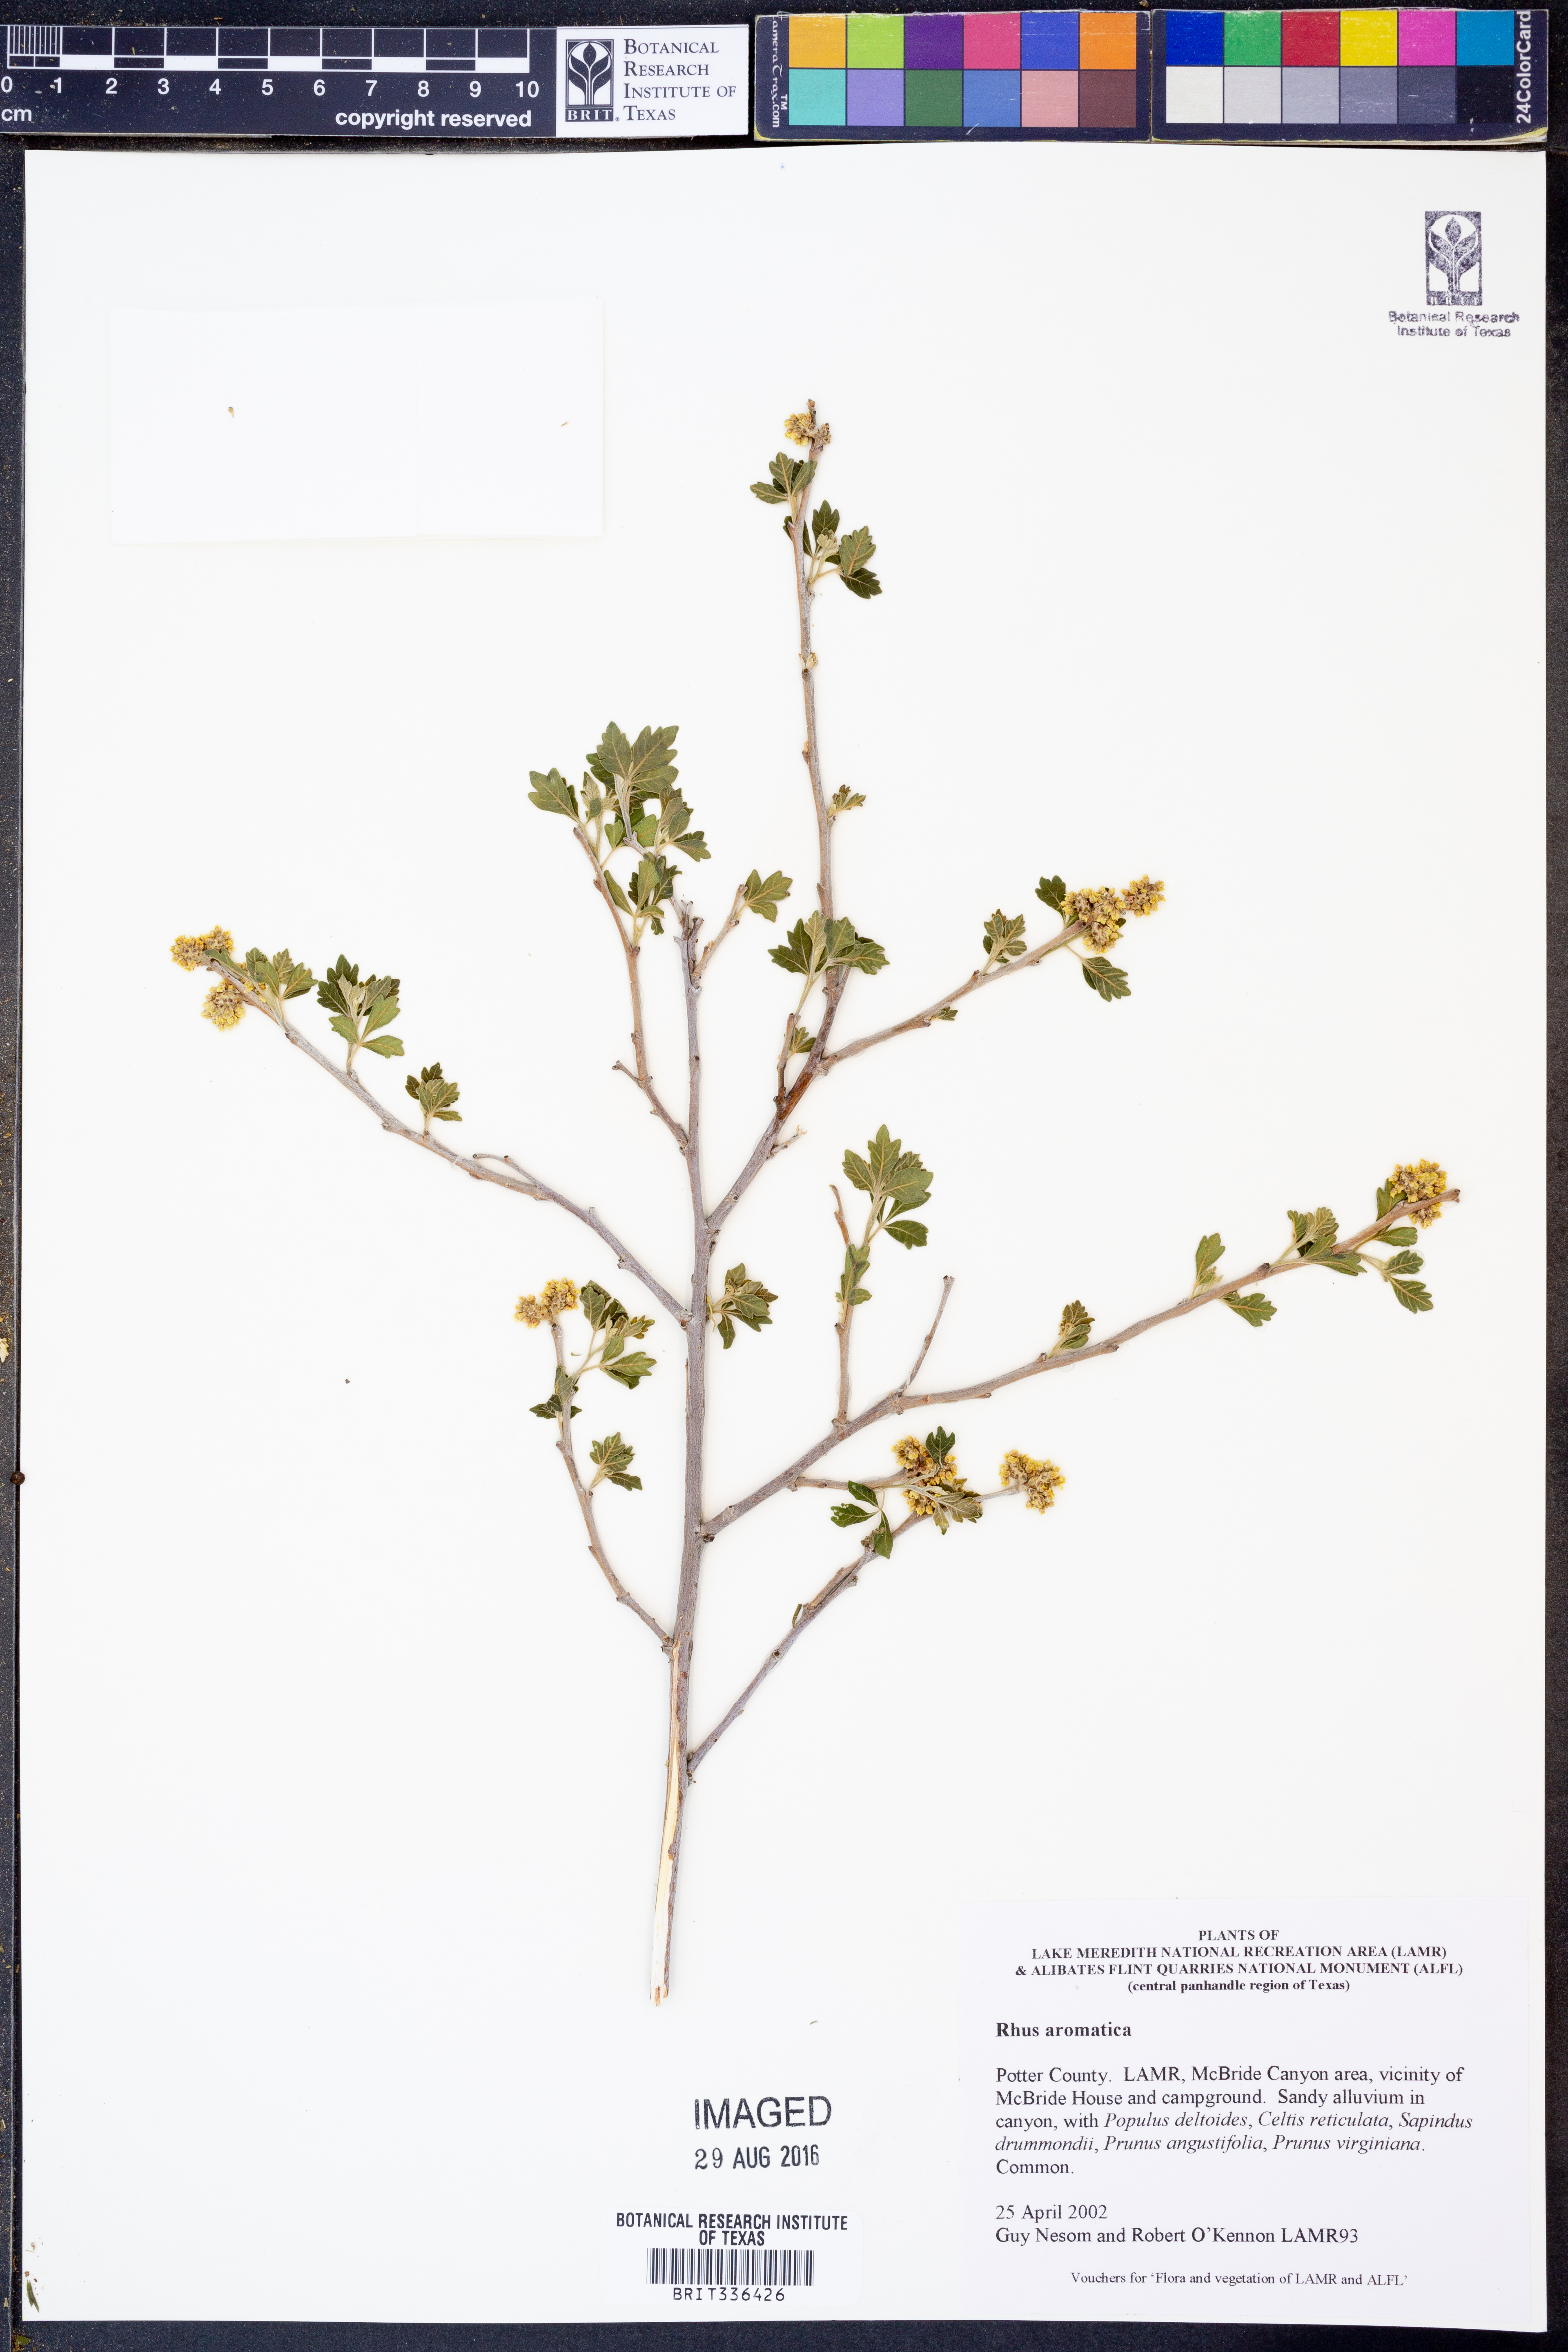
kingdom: Plantae
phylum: Tracheophyta
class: Magnoliopsida
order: Sapindales
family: Anacardiaceae
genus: Rhus
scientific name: Rhus aromatica
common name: Aromatic sumac
